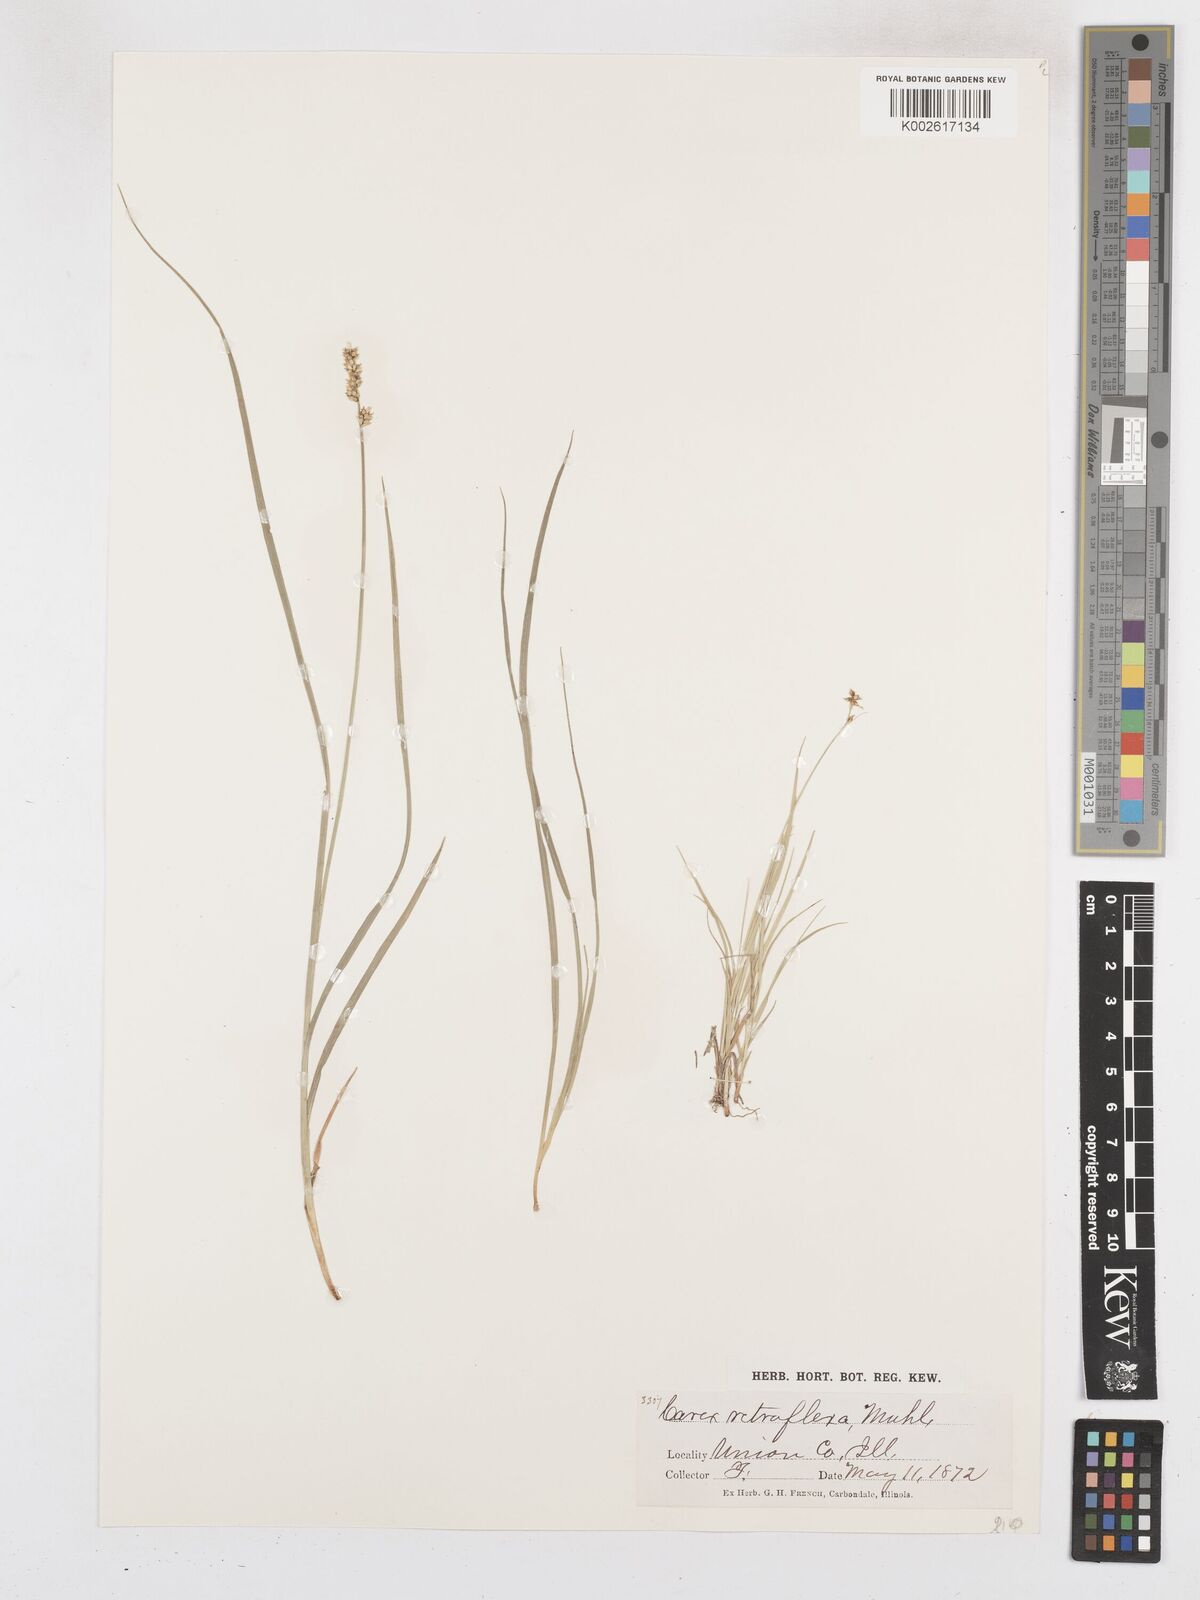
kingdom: Plantae
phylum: Tracheophyta
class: Liliopsida
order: Poales
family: Cyperaceae
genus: Carex
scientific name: Carex caryophyllea
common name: Spring sedge
